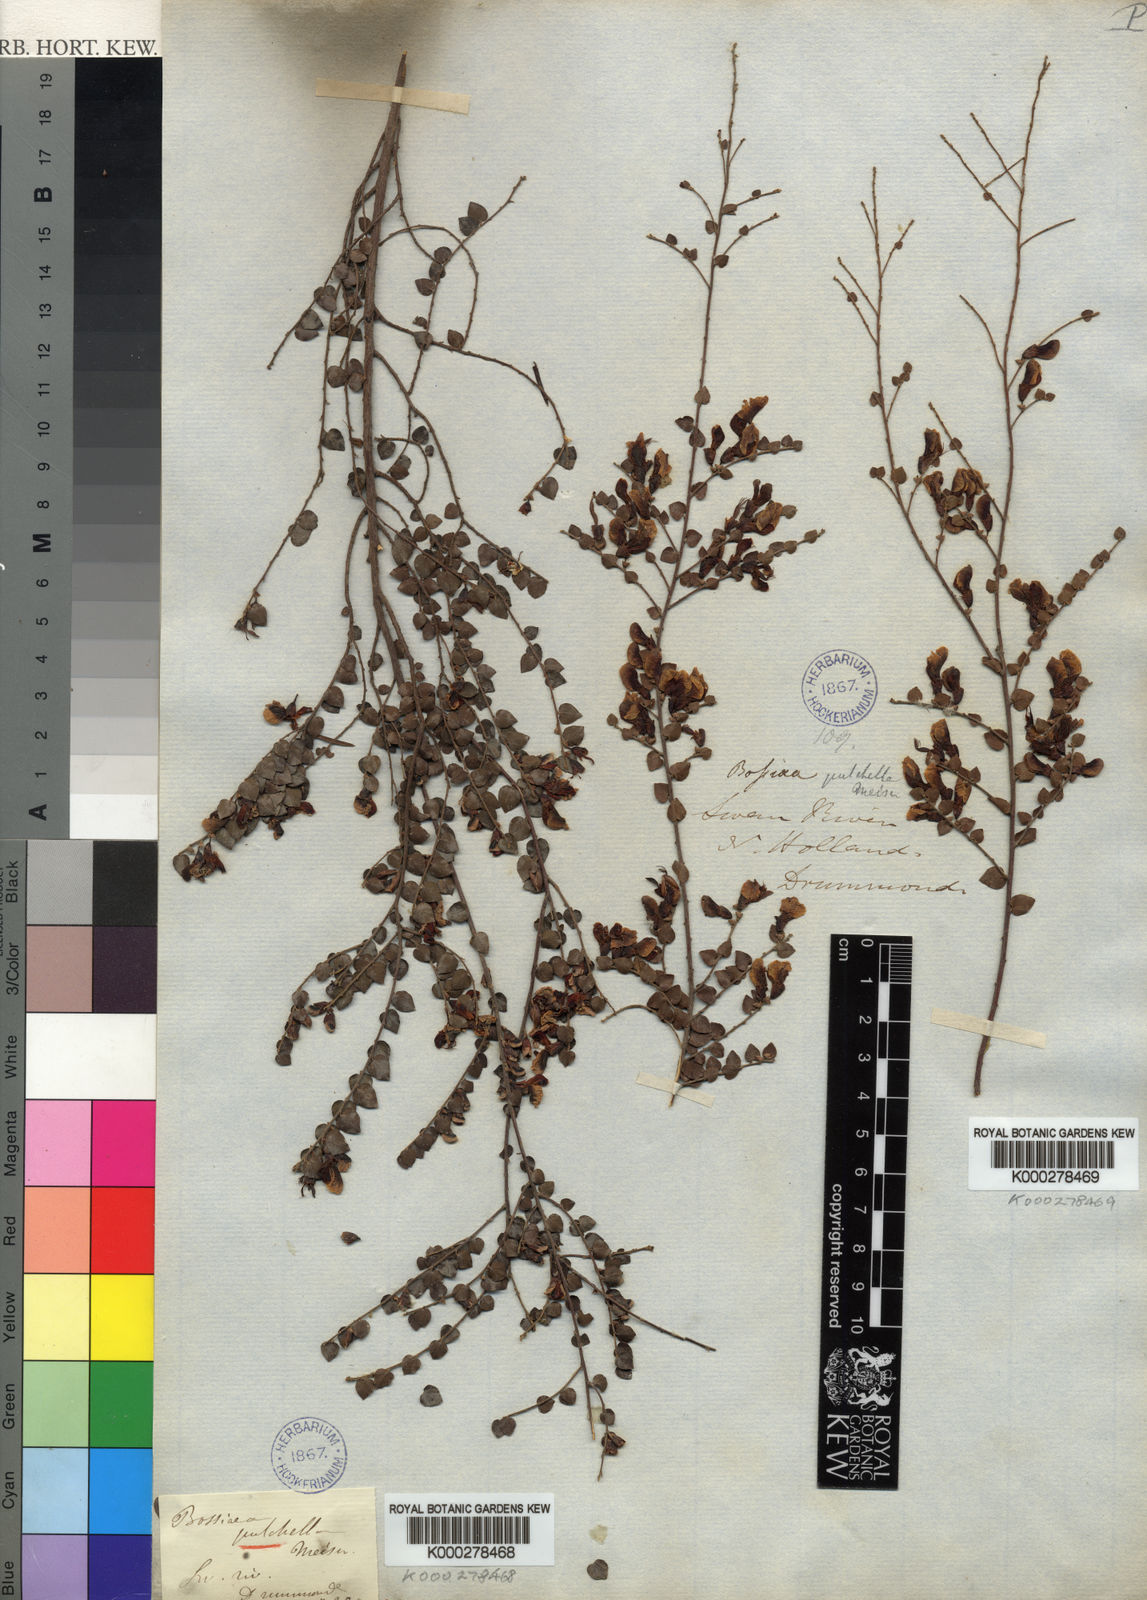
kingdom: Plantae
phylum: Tracheophyta
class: Magnoliopsida
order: Fabales
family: Fabaceae
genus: Bossiaea
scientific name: Bossiaea pulchella
